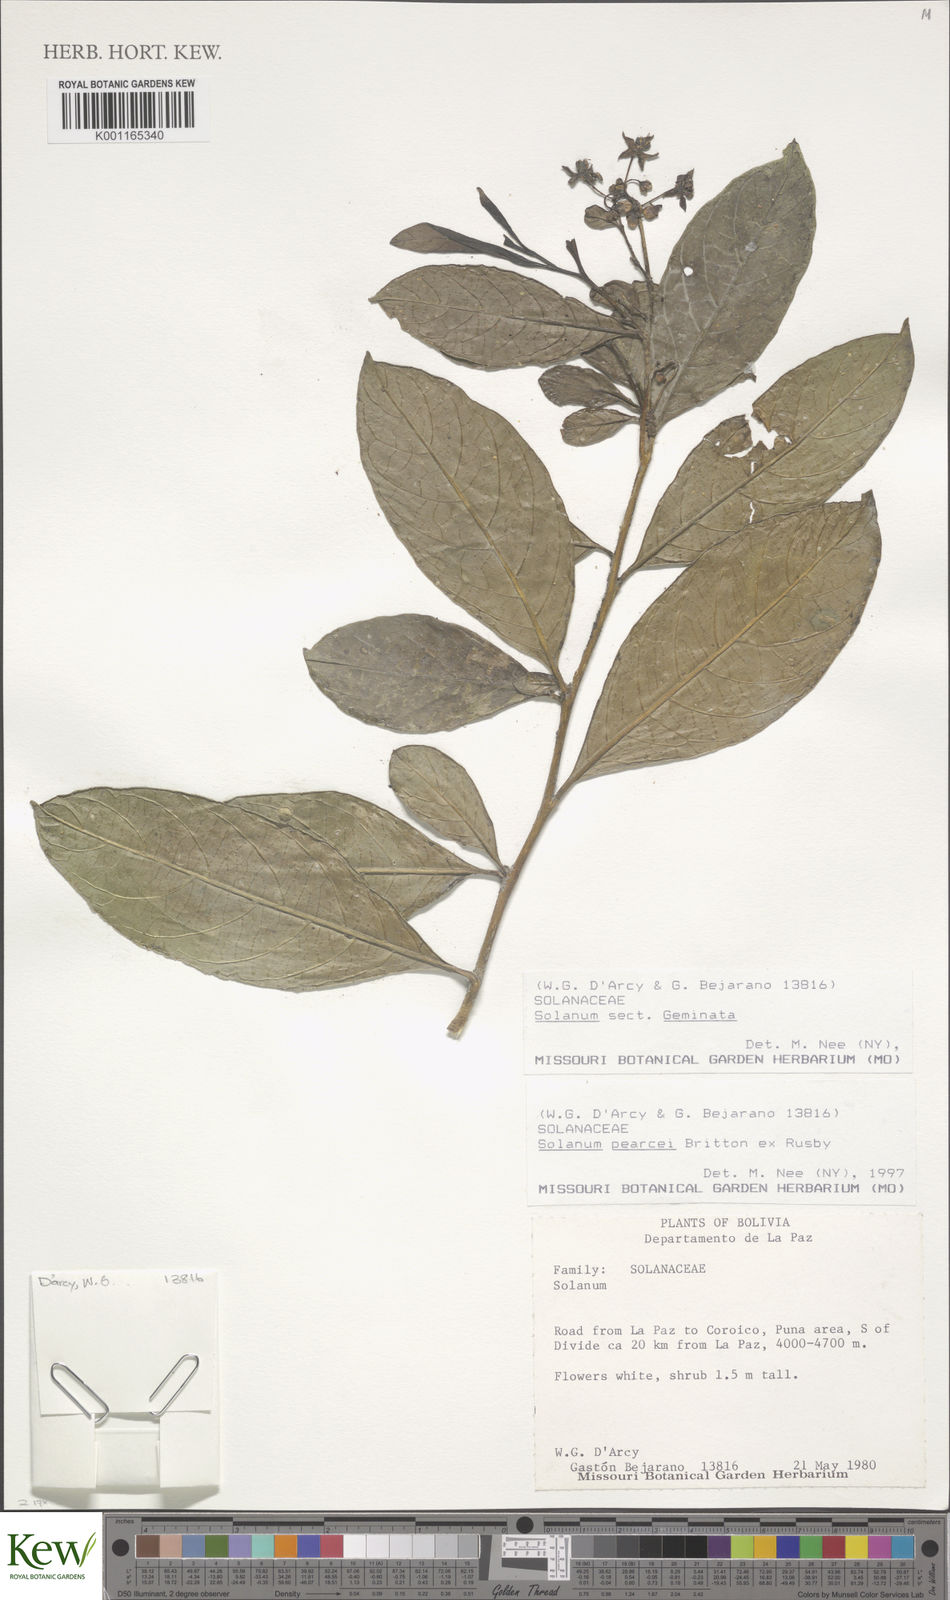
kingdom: Plantae
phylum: Tracheophyta
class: Magnoliopsida
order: Solanales
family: Solanaceae
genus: Solanum
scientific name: Solanum acuminatum
